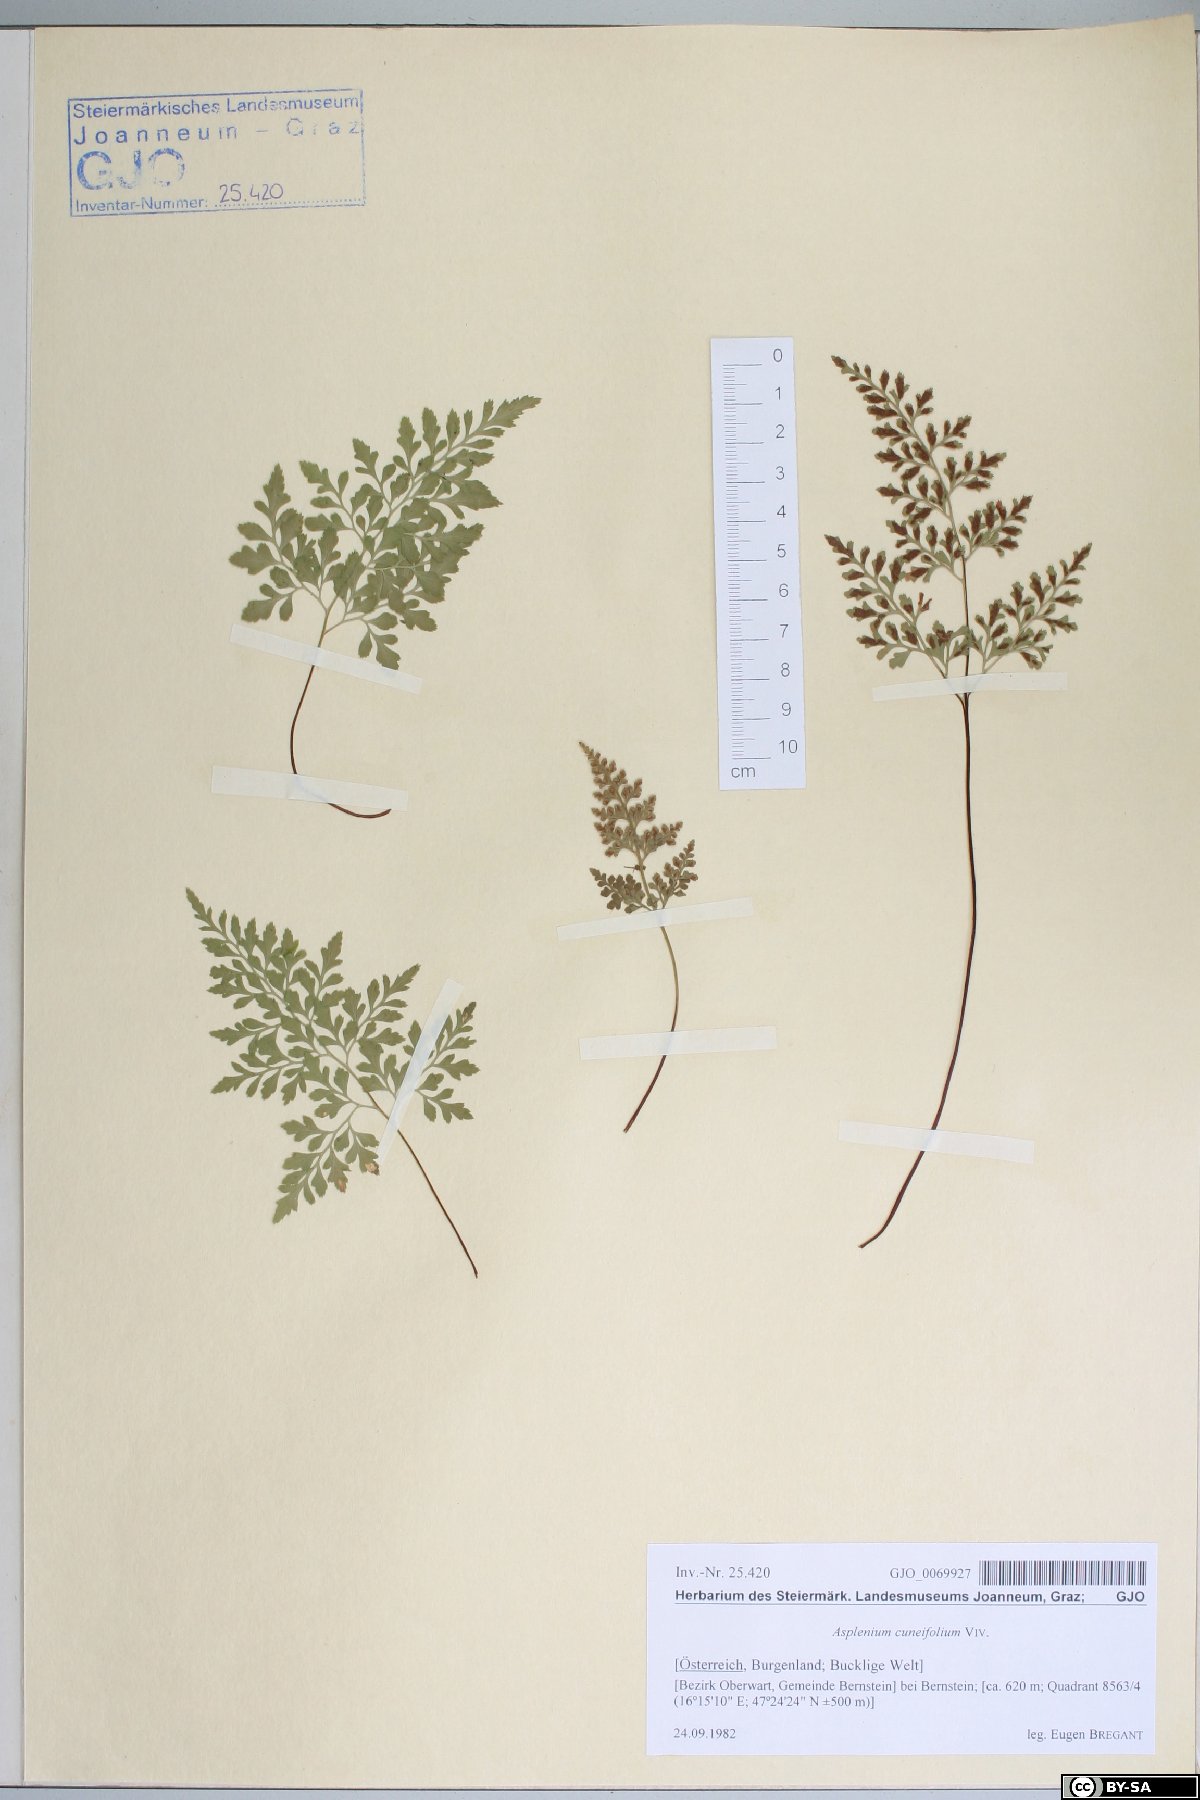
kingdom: Plantae
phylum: Tracheophyta
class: Polypodiopsida
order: Polypodiales
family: Aspleniaceae
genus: Asplenium
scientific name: Asplenium cuneifolium
